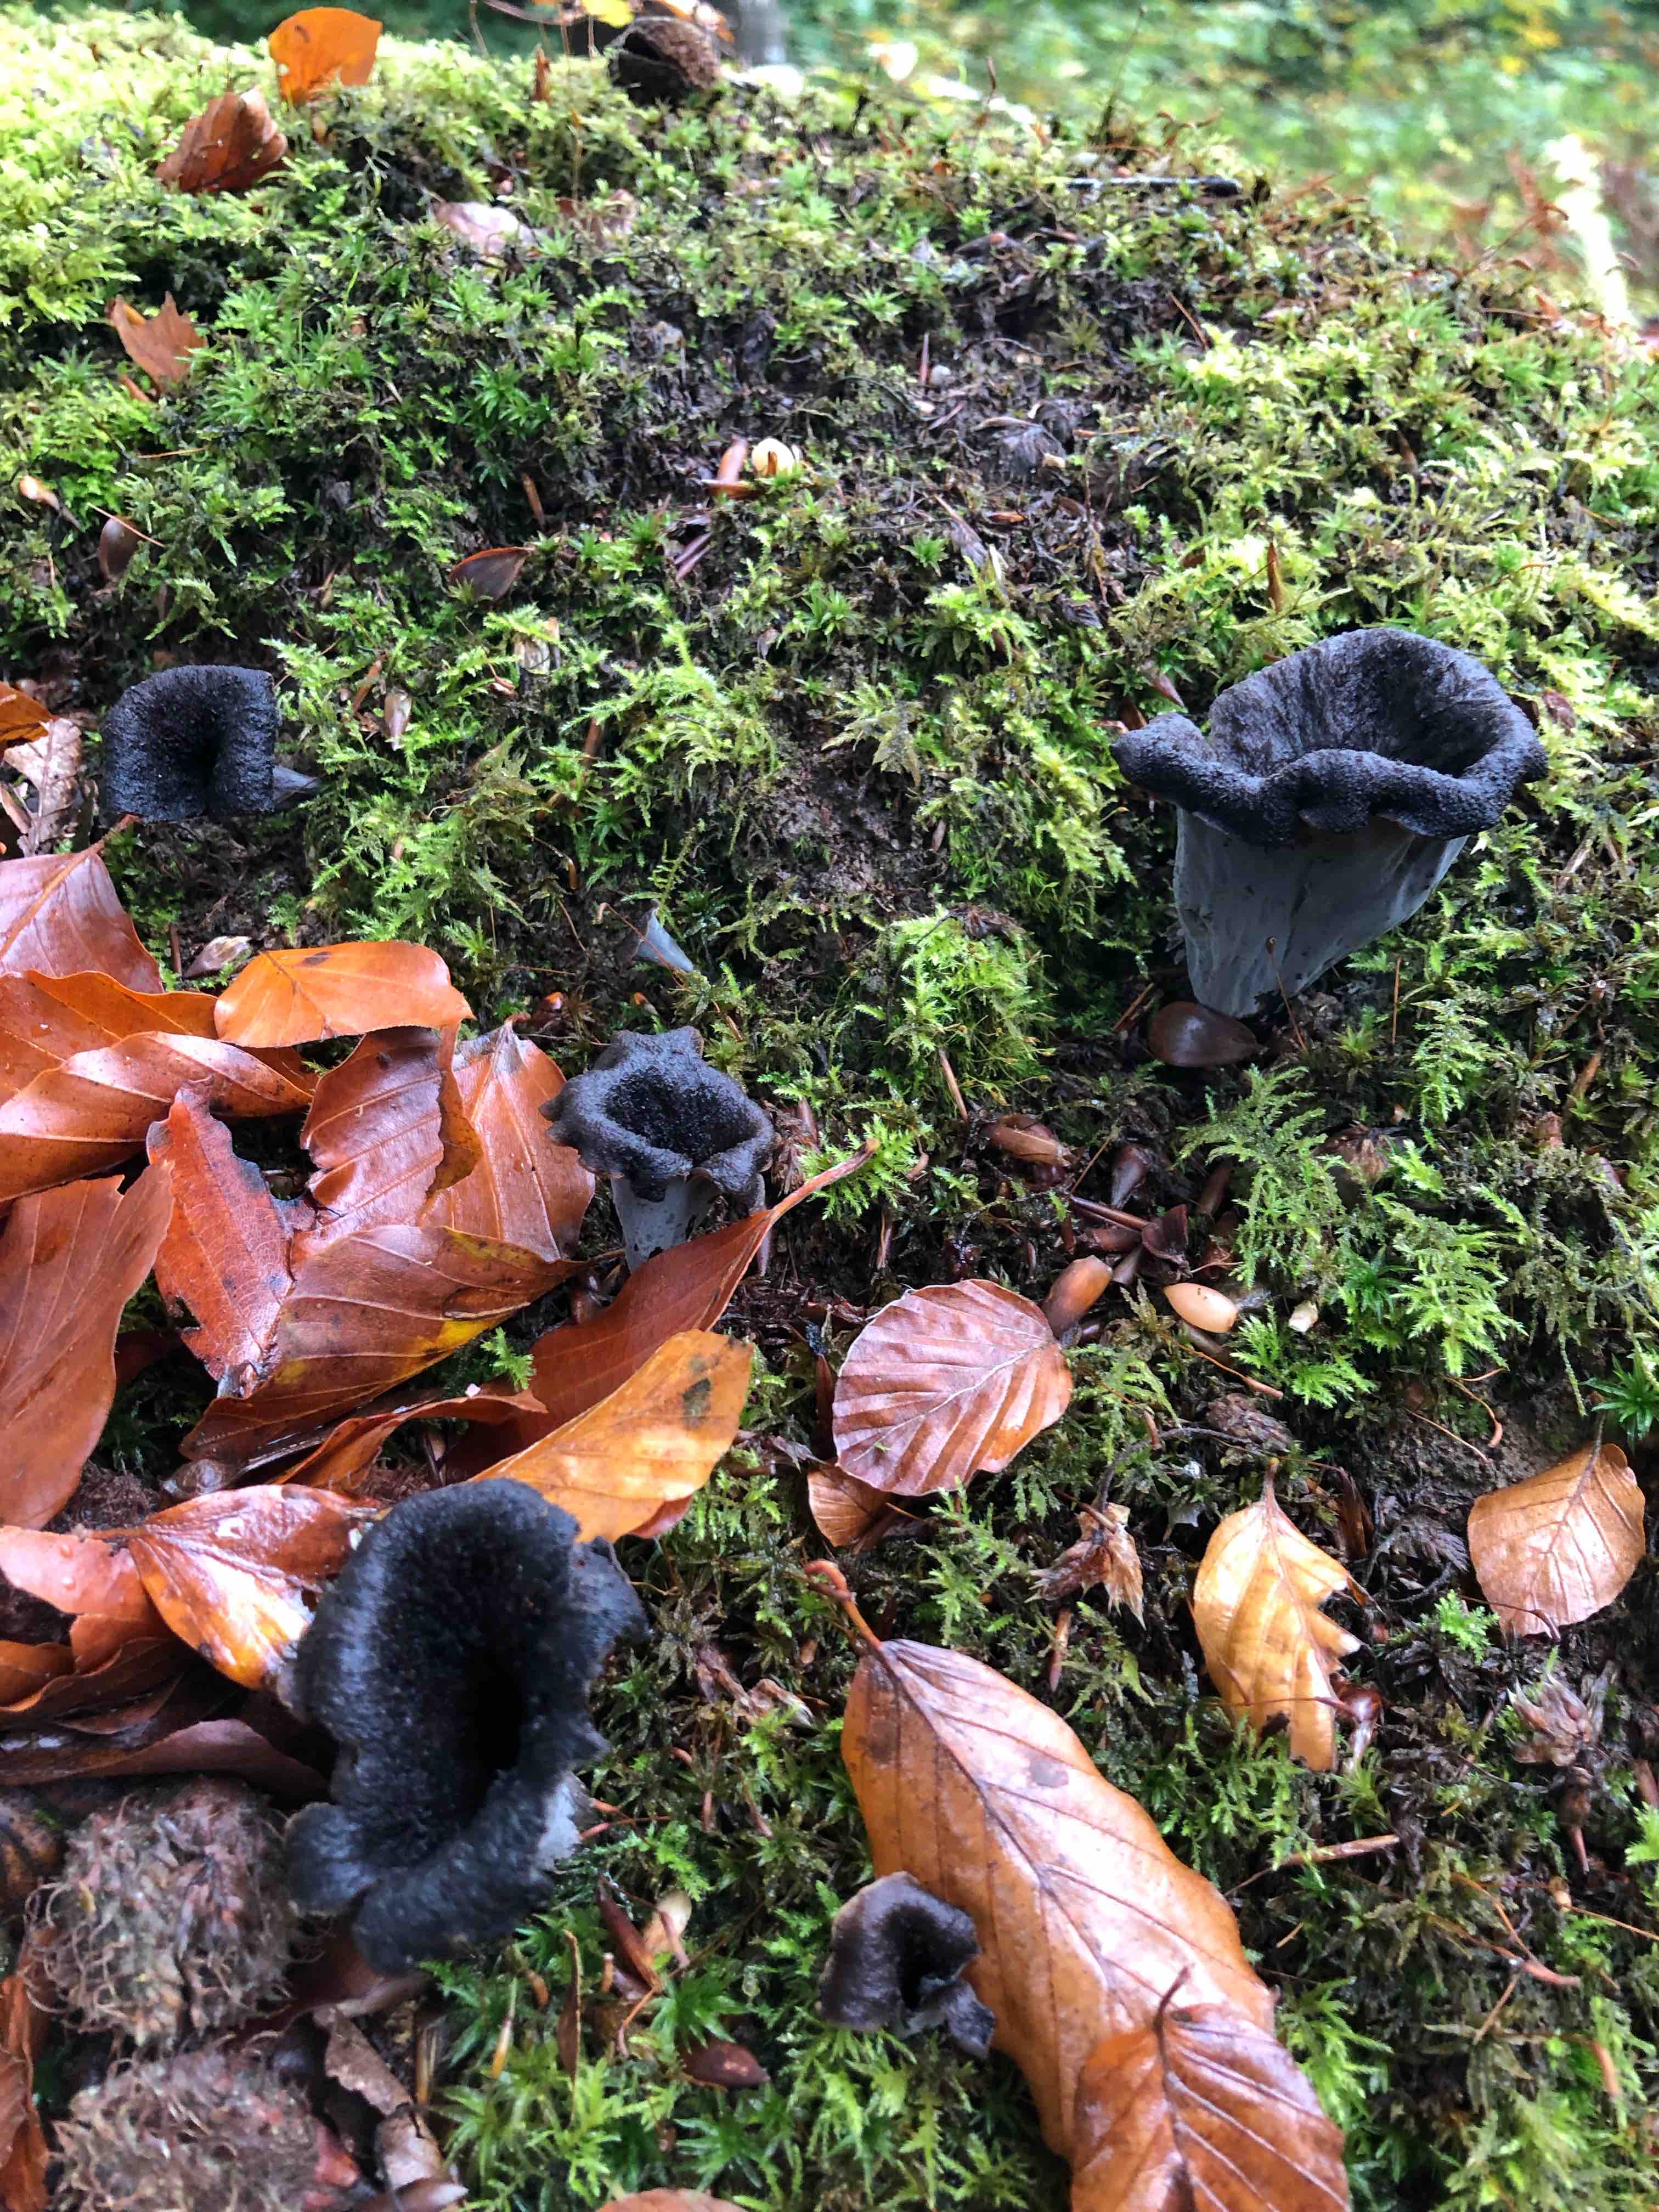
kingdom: Fungi
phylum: Basidiomycota
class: Agaricomycetes
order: Cantharellales
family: Hydnaceae
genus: Craterellus
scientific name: Craterellus cornucopioides
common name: trompetsvamp
